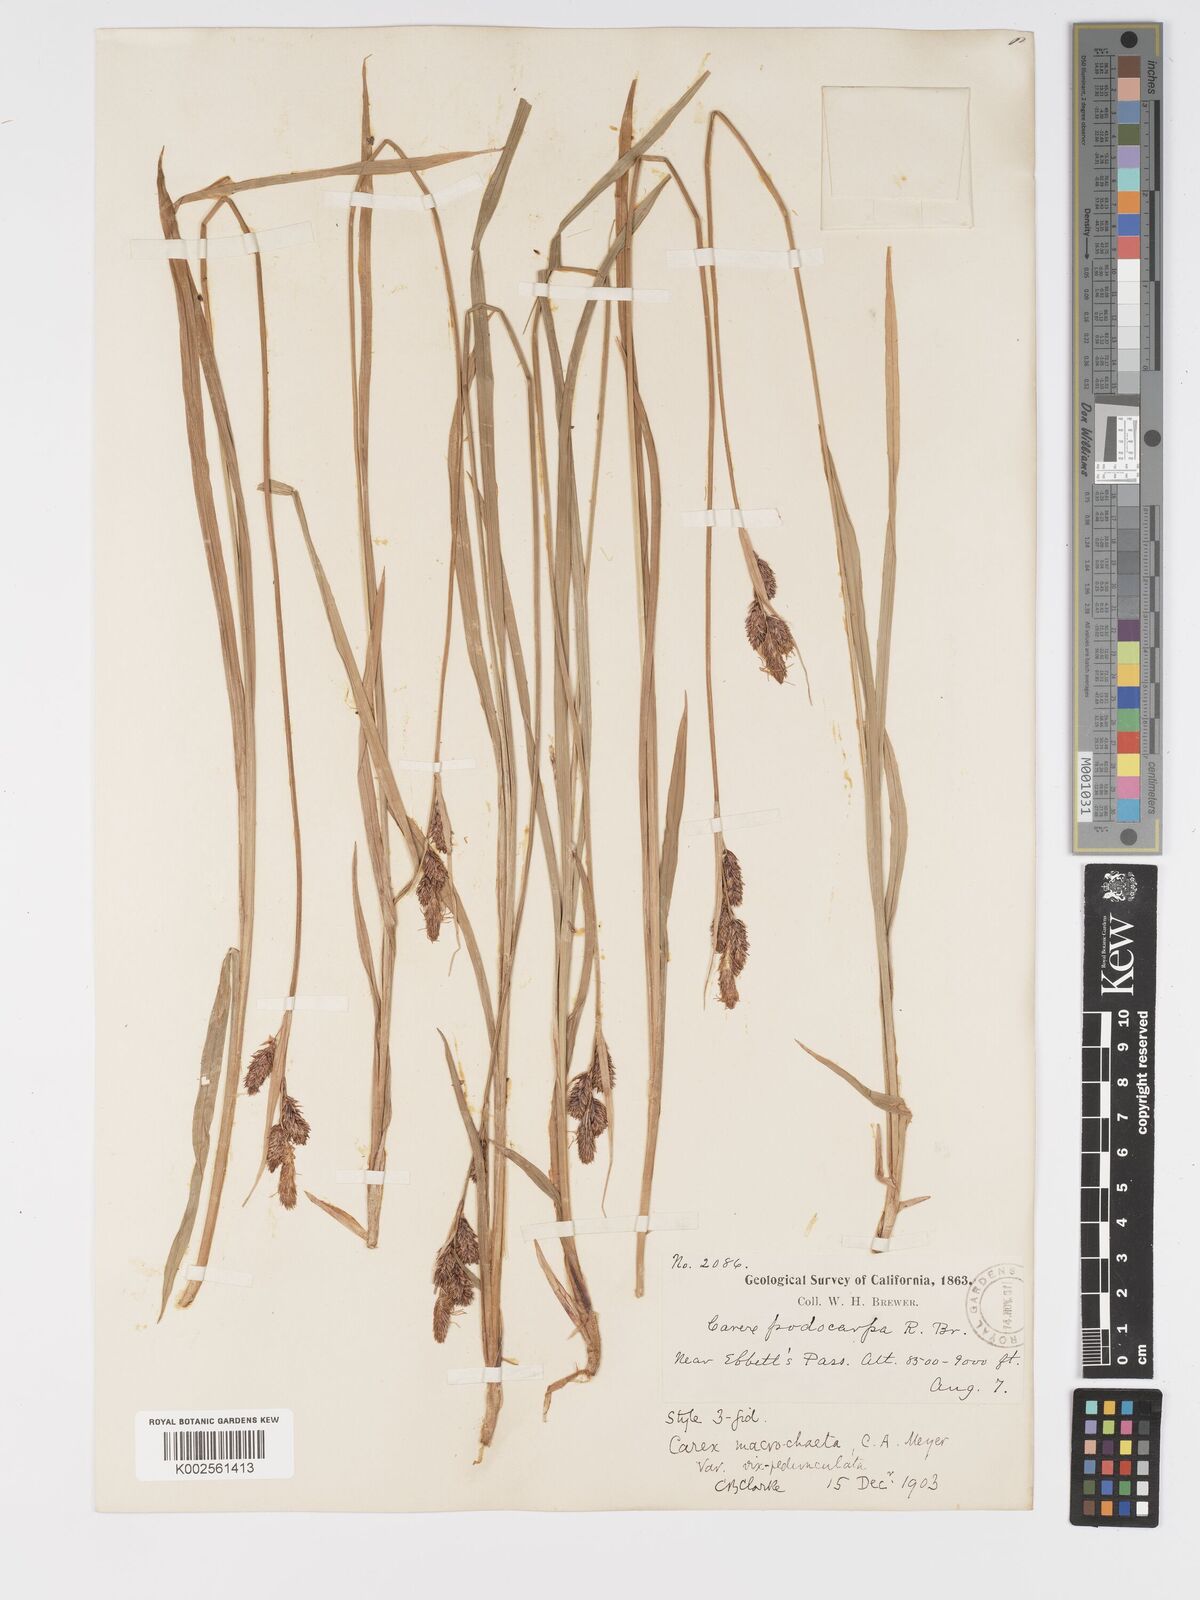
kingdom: Plantae
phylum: Tracheophyta
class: Liliopsida
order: Poales
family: Cyperaceae
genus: Carex
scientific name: Carex macrochaeta
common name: Alaska large awn sedge
